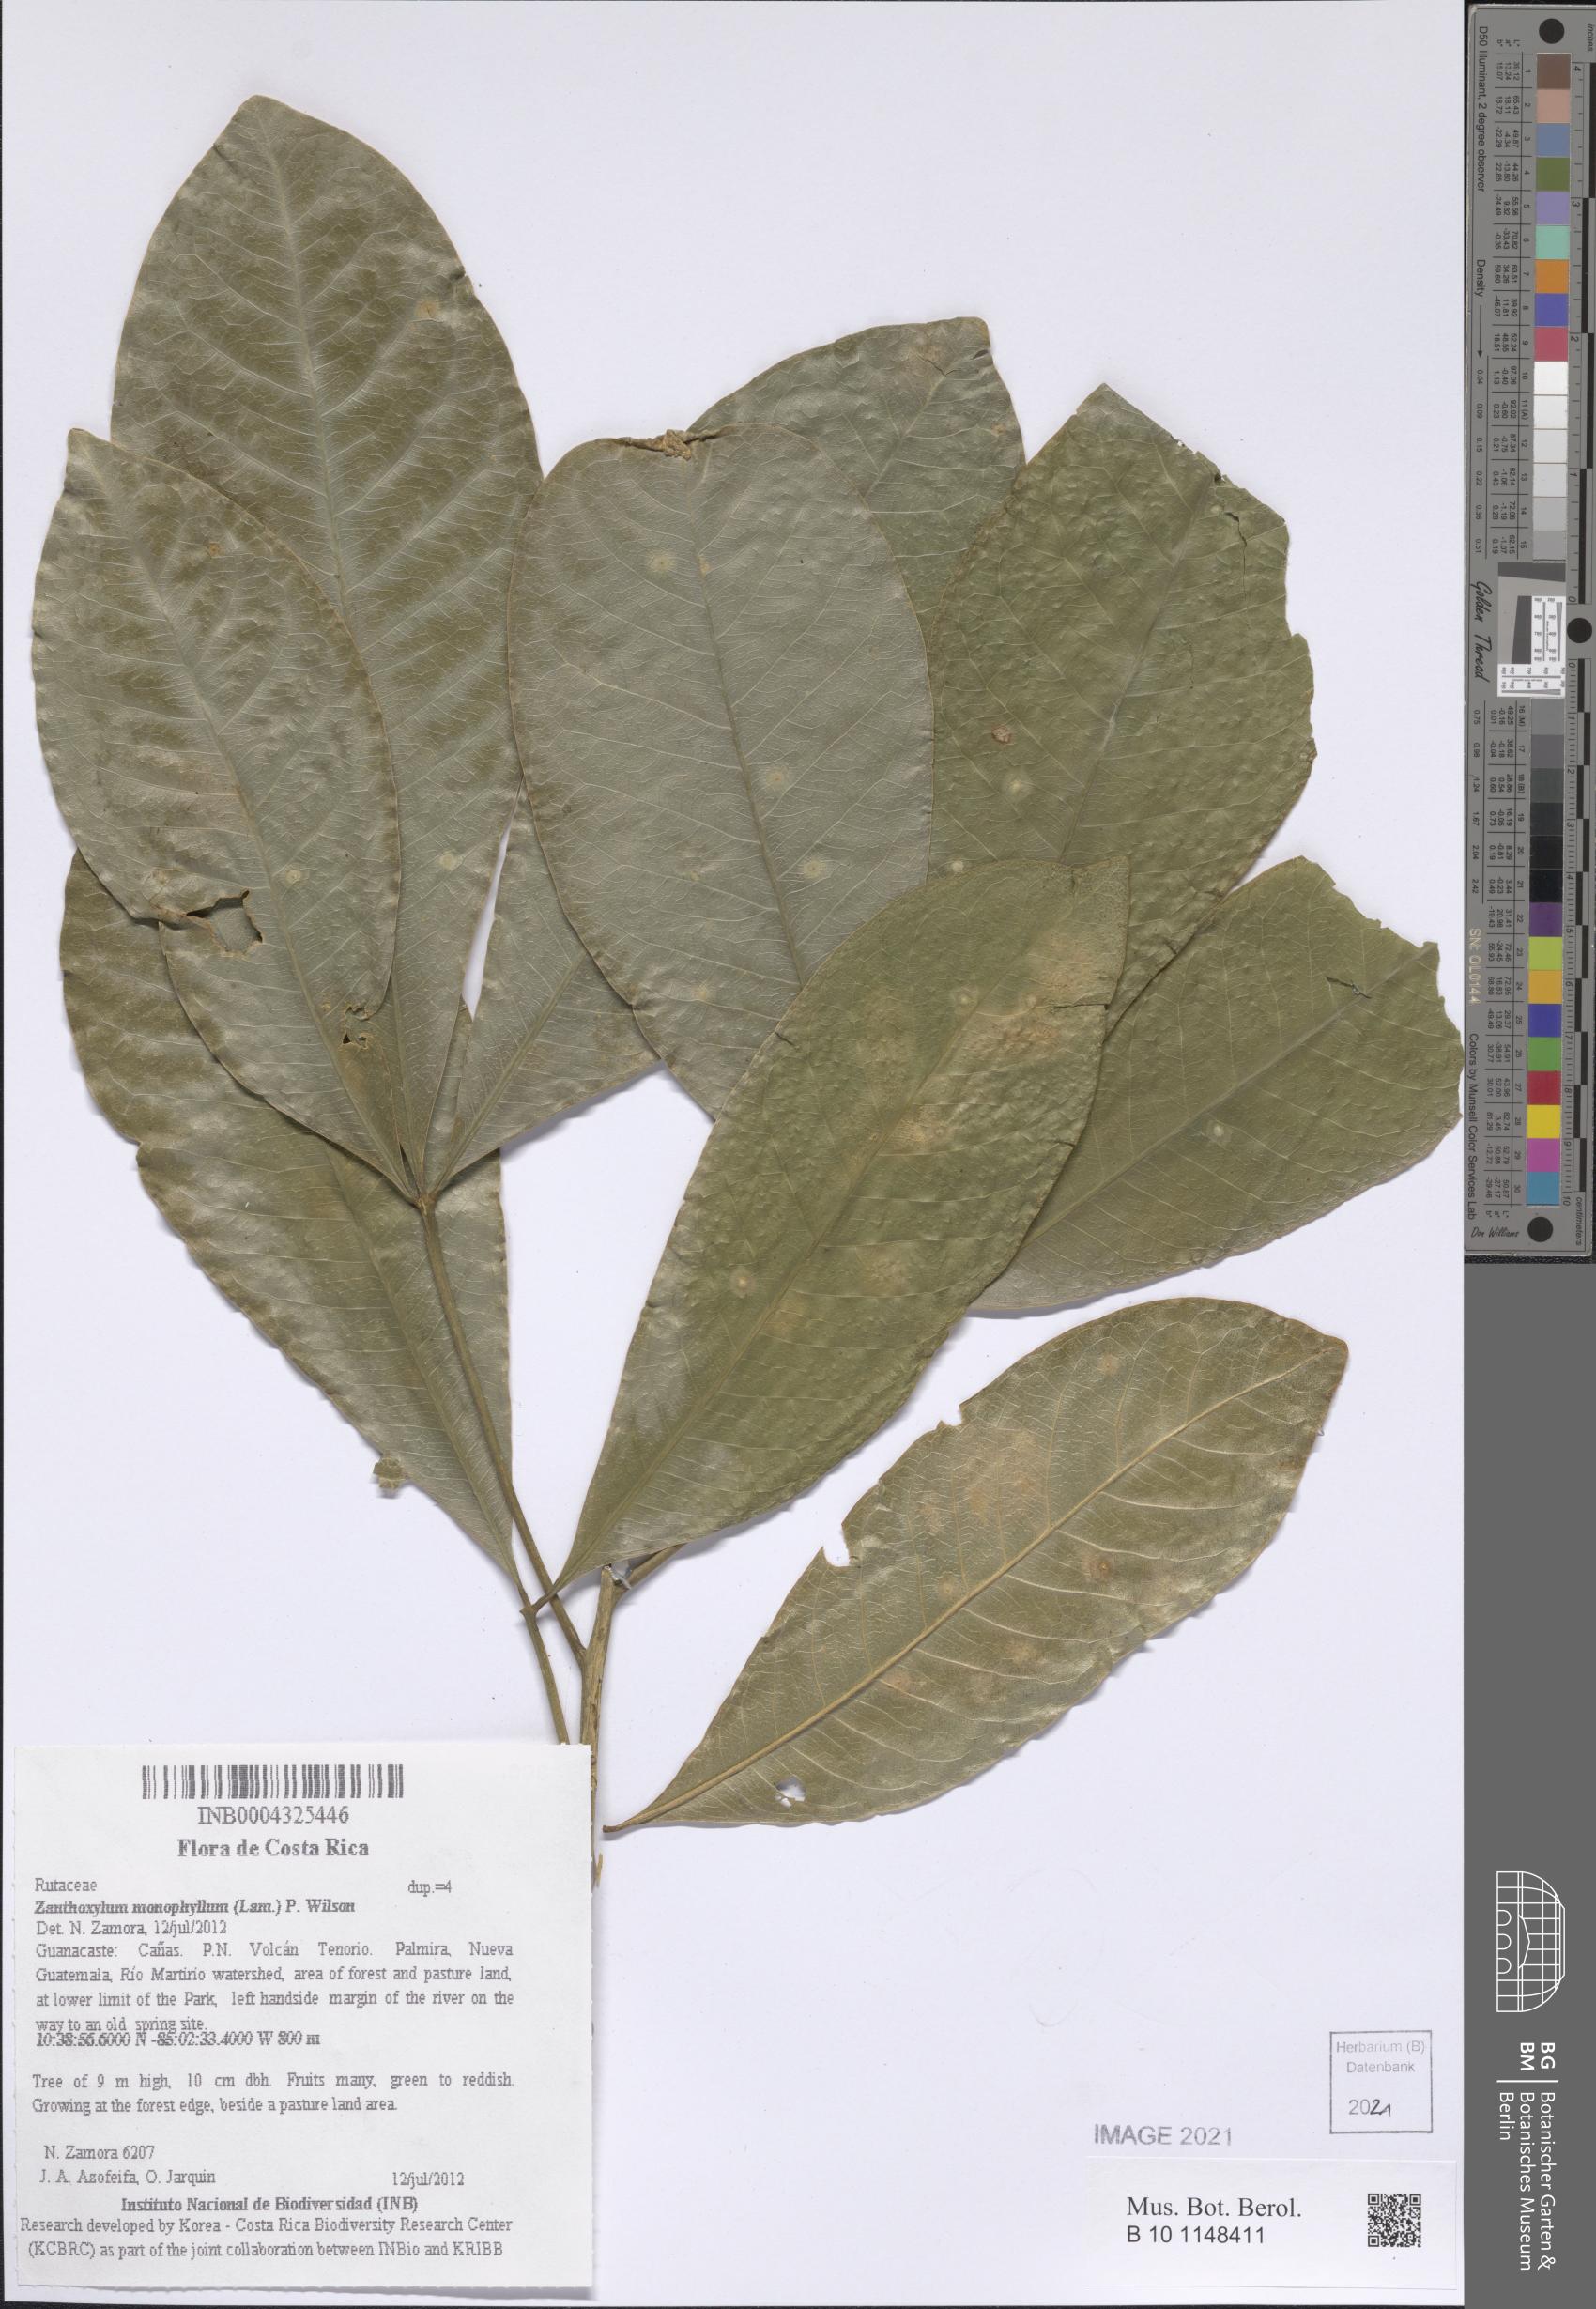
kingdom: Plantae
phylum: Tracheophyta
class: Magnoliopsida
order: Sapindales
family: Rutaceae
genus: Zanthoxylum
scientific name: Zanthoxylum schreberi
